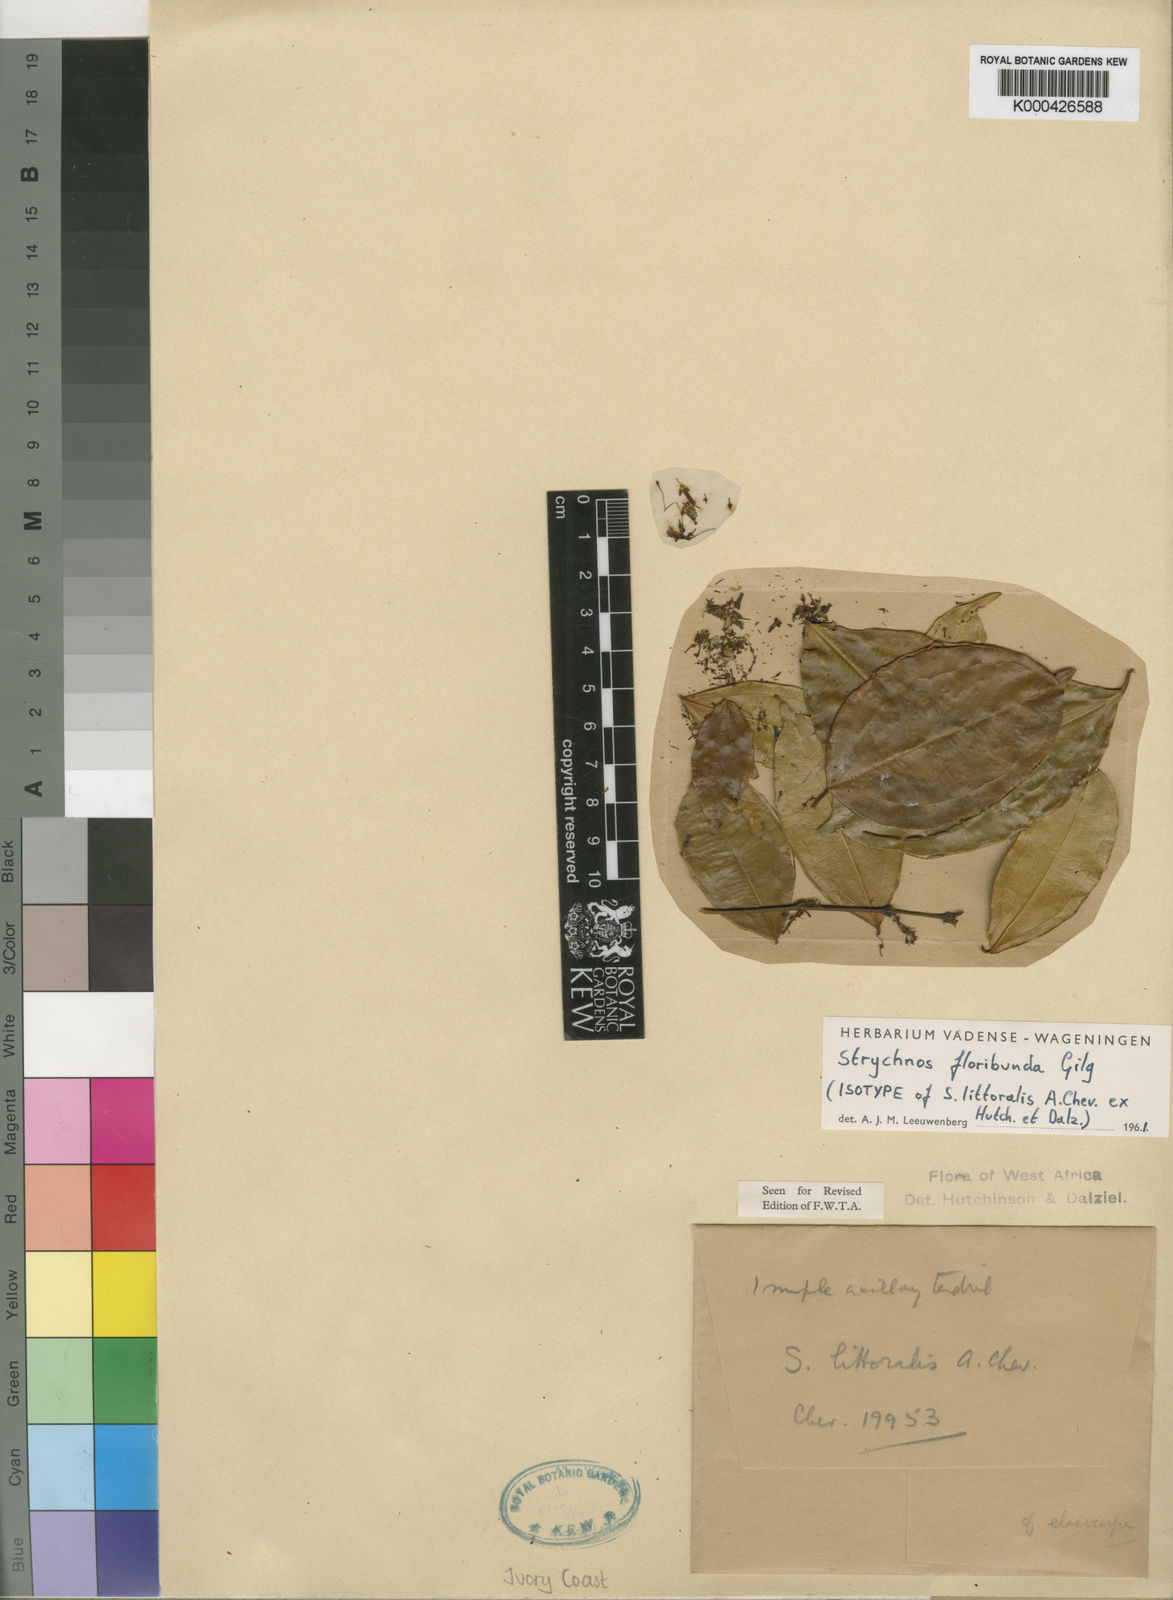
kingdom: Plantae
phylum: Tracheophyta
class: Magnoliopsida
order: Gentianales
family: Loganiaceae
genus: Strychnos
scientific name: Strychnos floribunda
